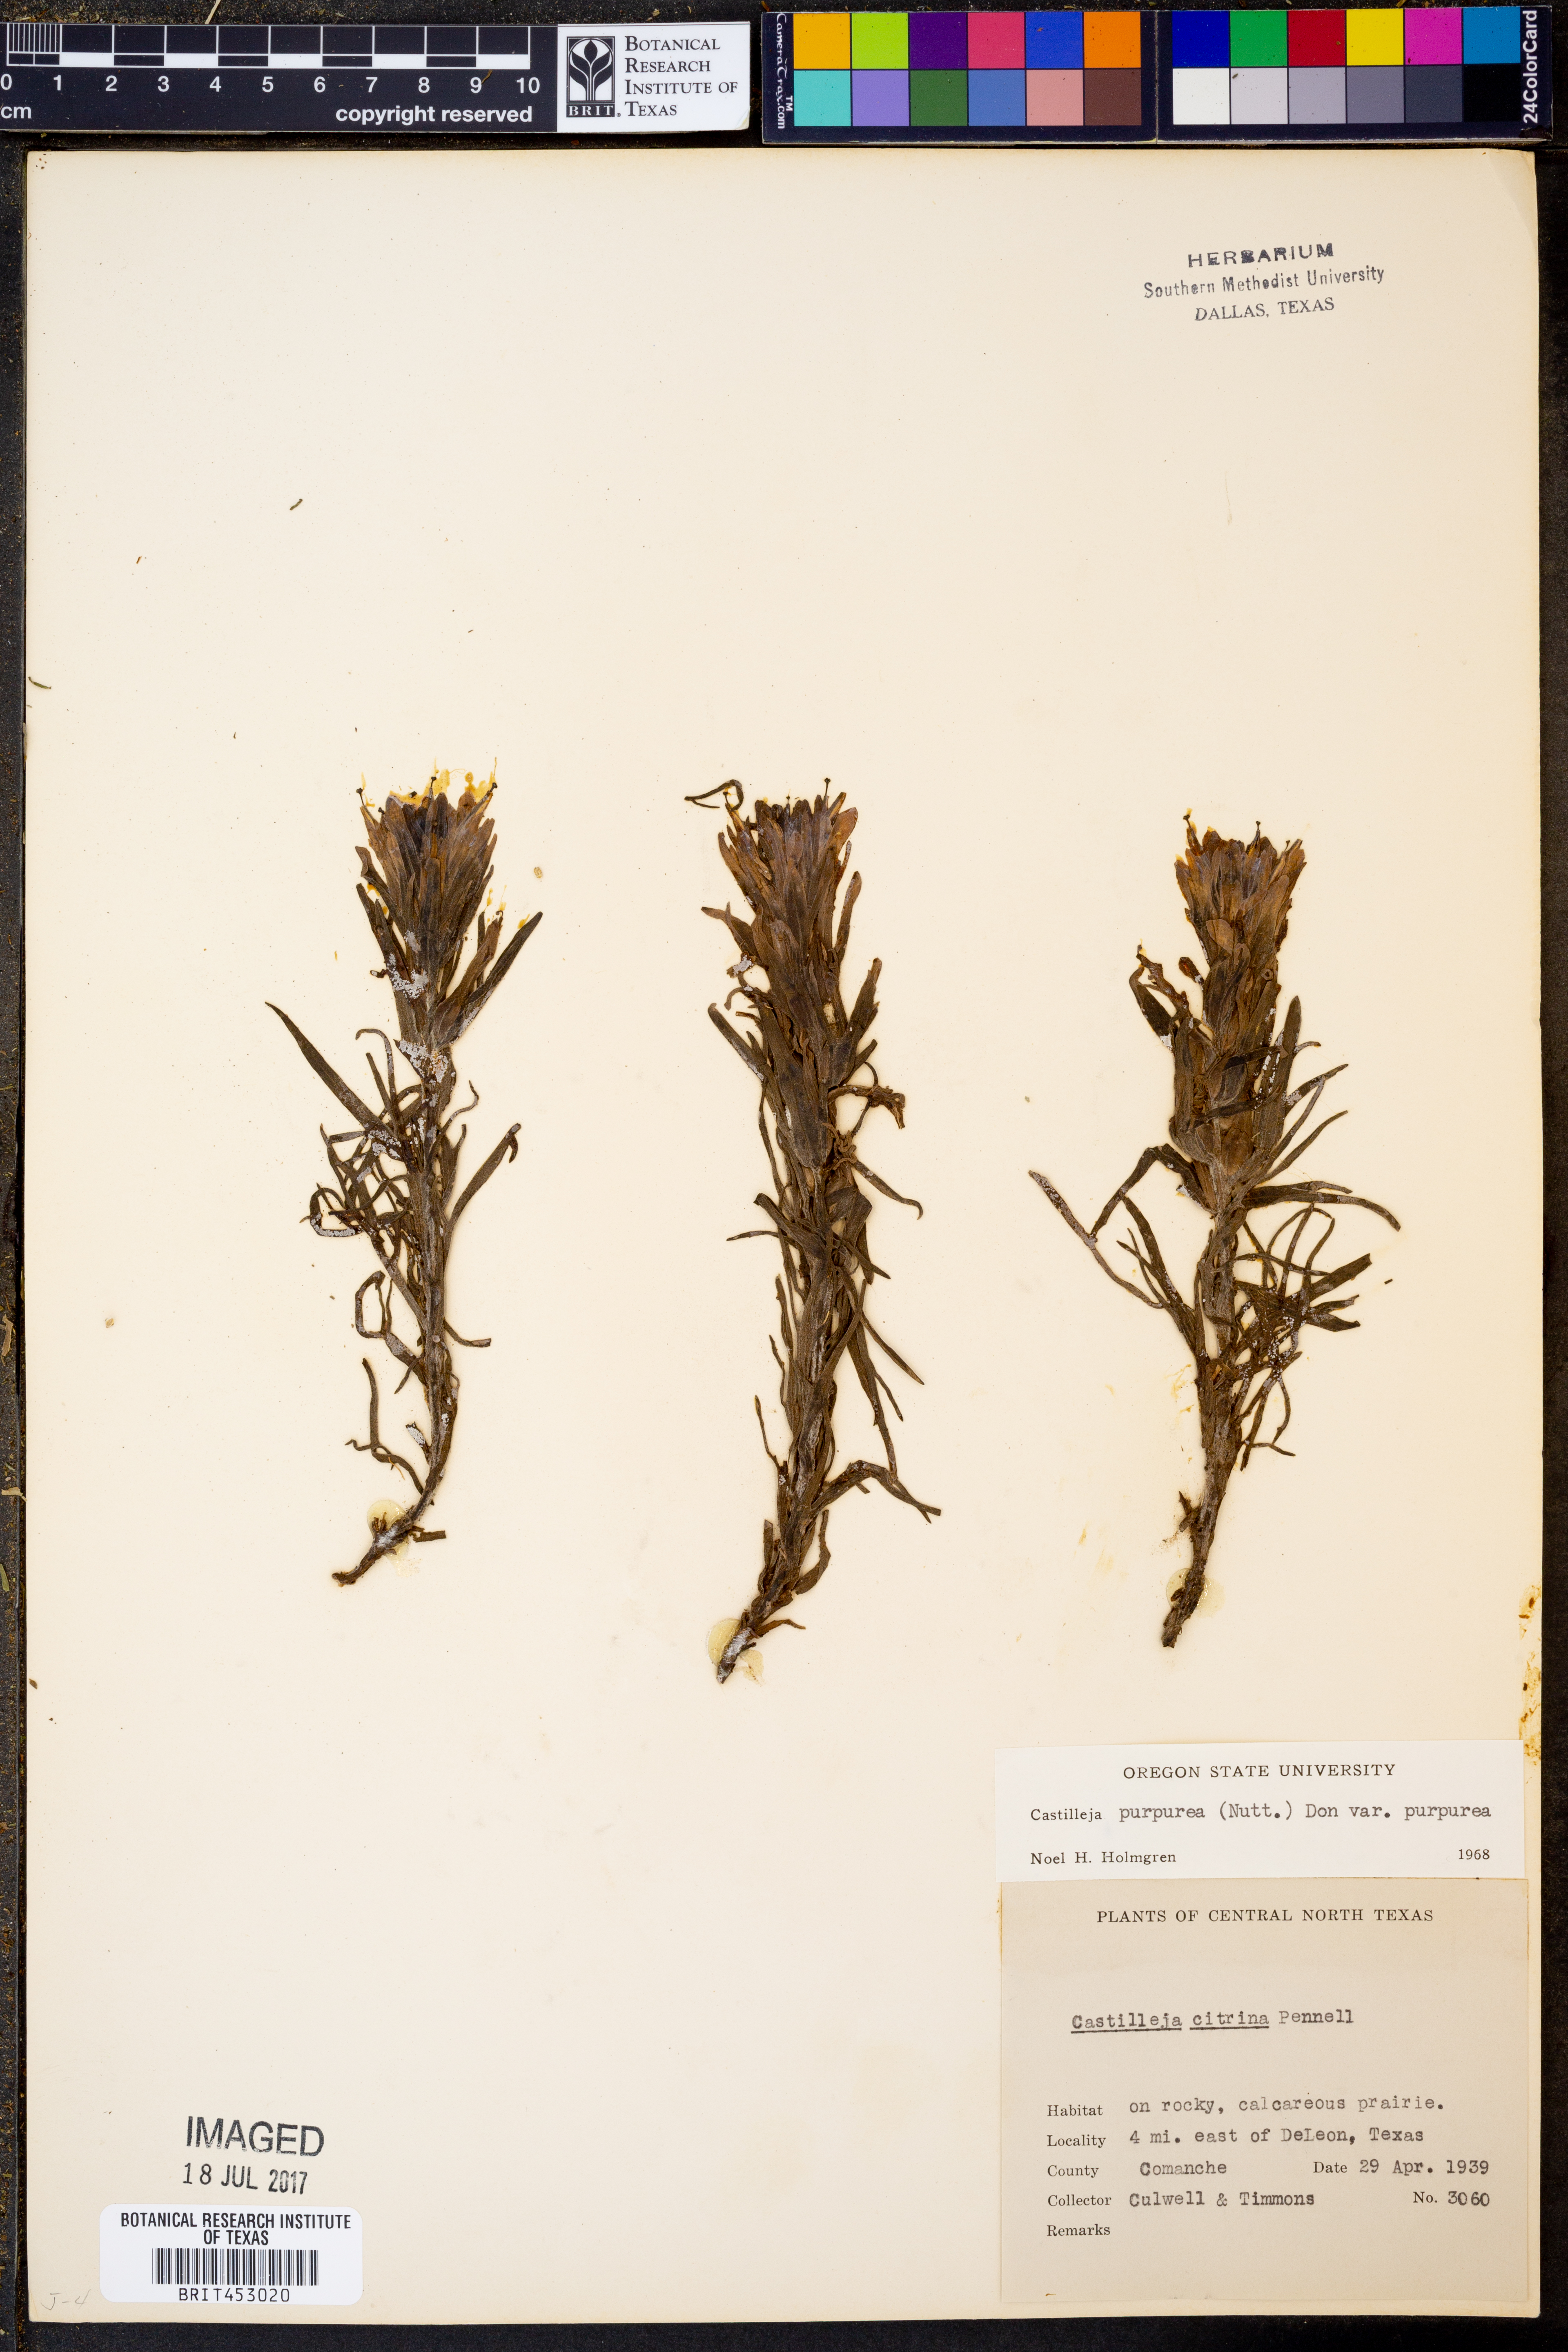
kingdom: Plantae
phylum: Tracheophyta
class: Magnoliopsida
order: Lamiales
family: Orobanchaceae
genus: Castilleja
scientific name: Castilleja purpurea
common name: Plains paintbrush
